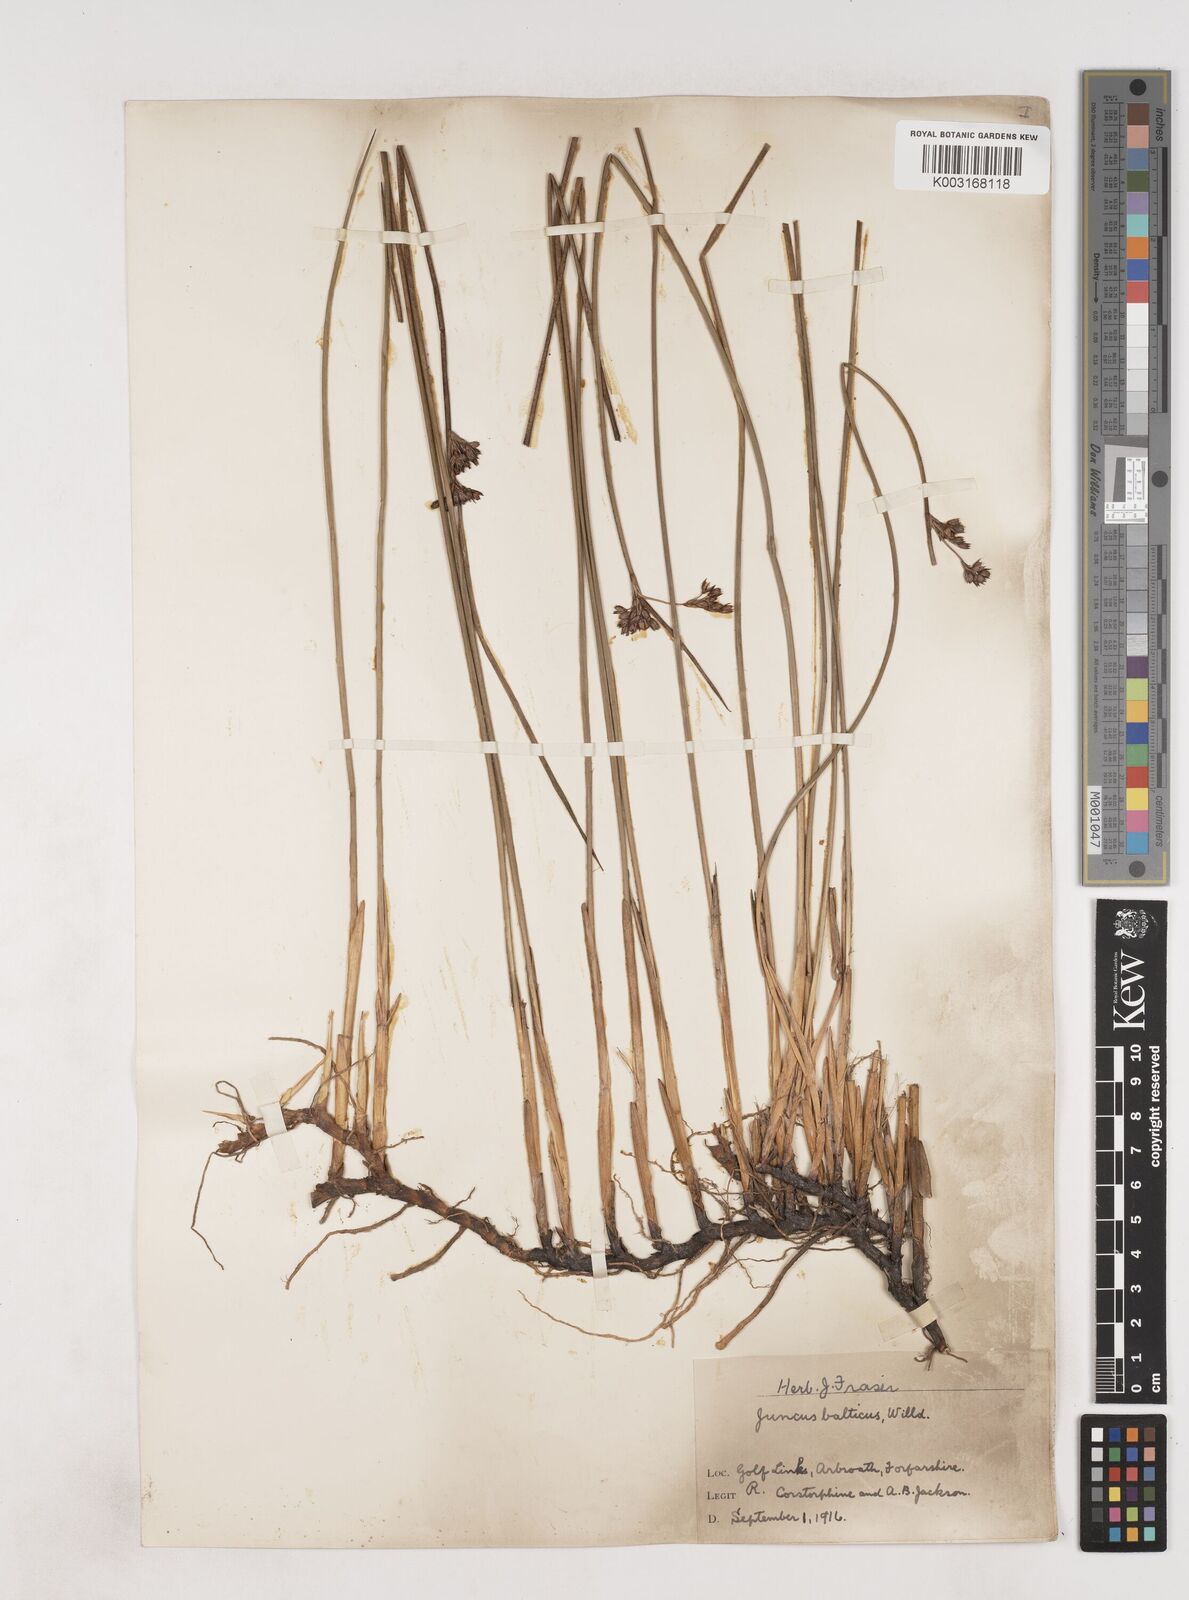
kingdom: Plantae
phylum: Tracheophyta
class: Liliopsida
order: Poales
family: Juncaceae
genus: Juncus
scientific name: Juncus balticus
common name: Baltic rush
